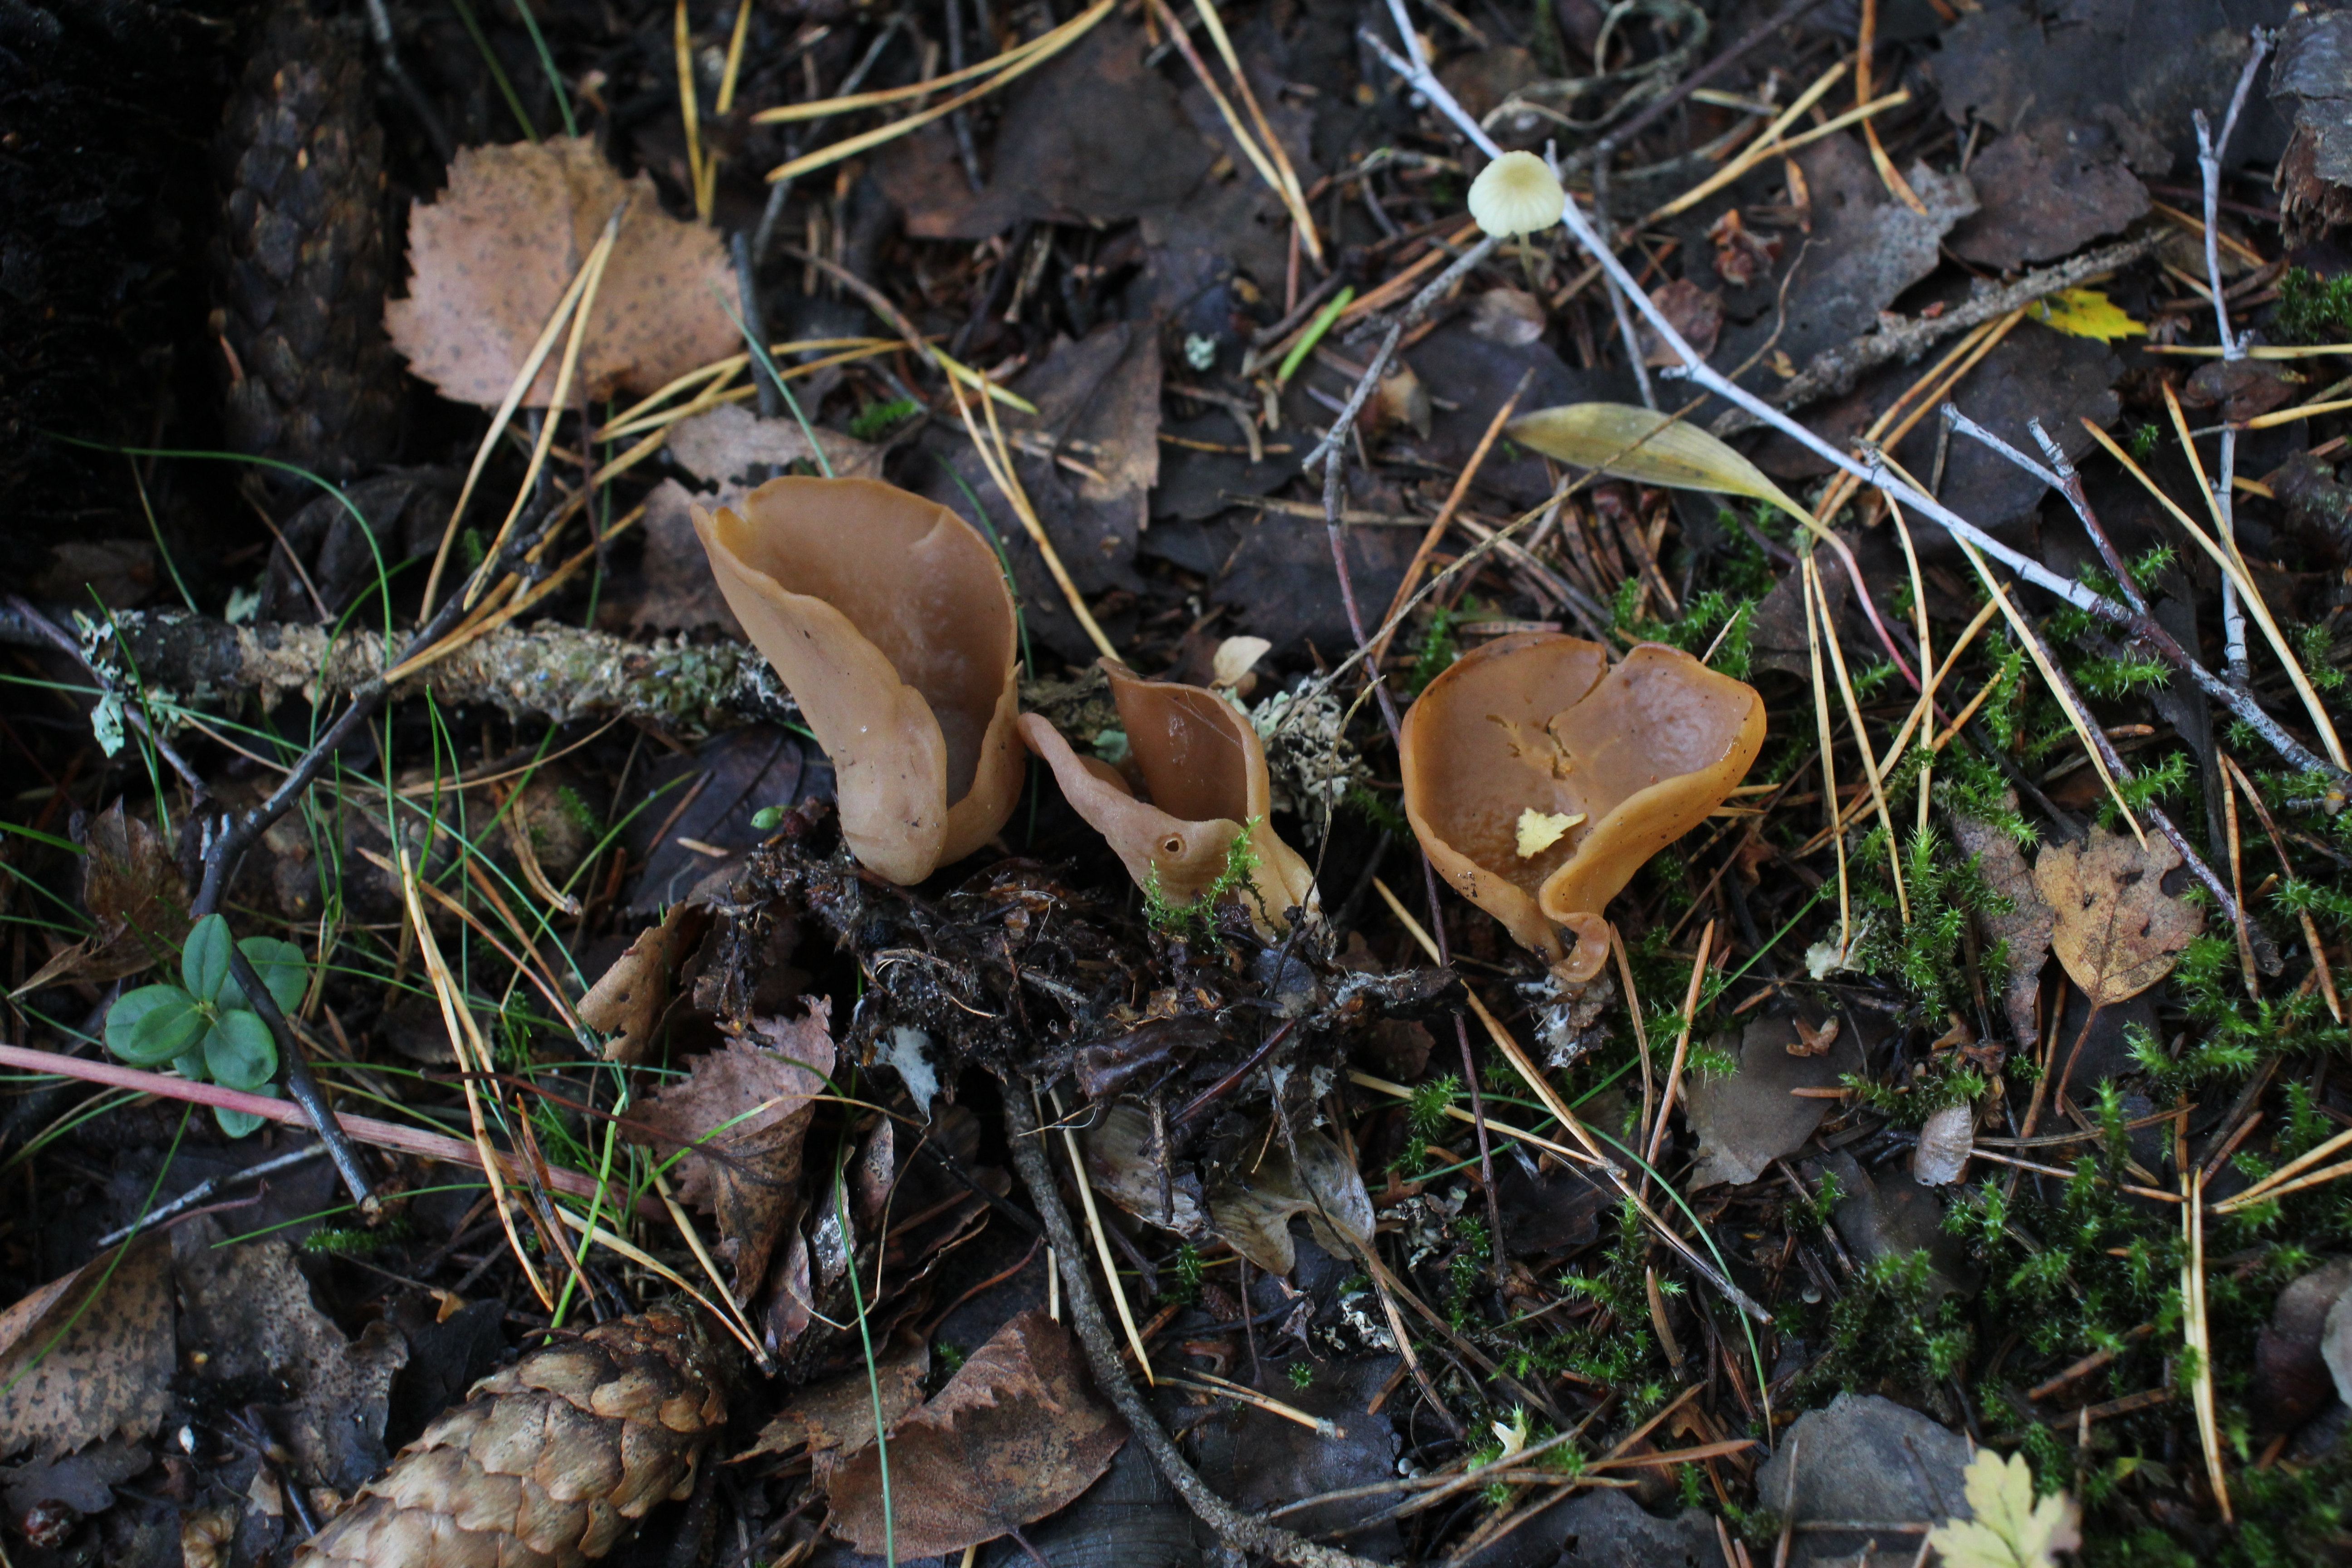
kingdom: Fungi
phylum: Ascomycota
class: Pezizomycetes
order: Pezizales
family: Otideaceae
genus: Otidea
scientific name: Otidea
